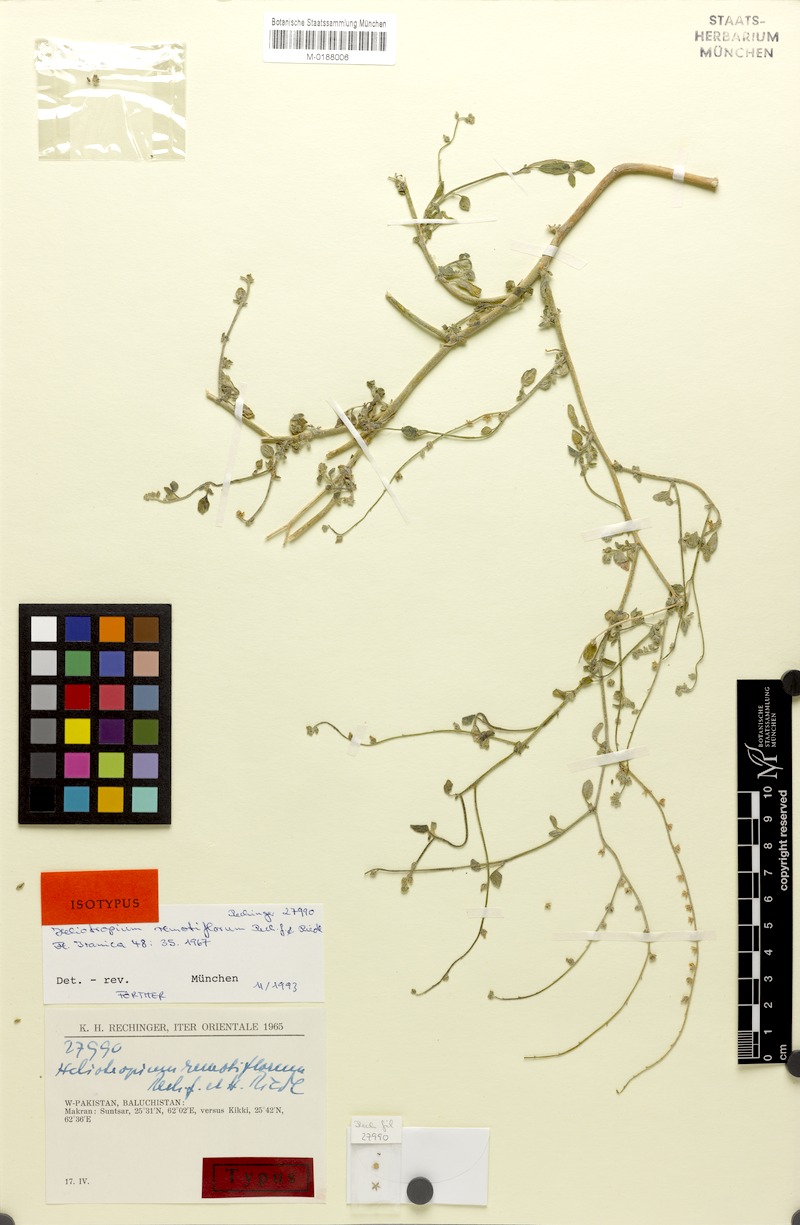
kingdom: Plantae
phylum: Tracheophyta
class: Magnoliopsida
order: Boraginales
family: Heliotropiaceae
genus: Heliotropium
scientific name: Heliotropium remotiflorum
